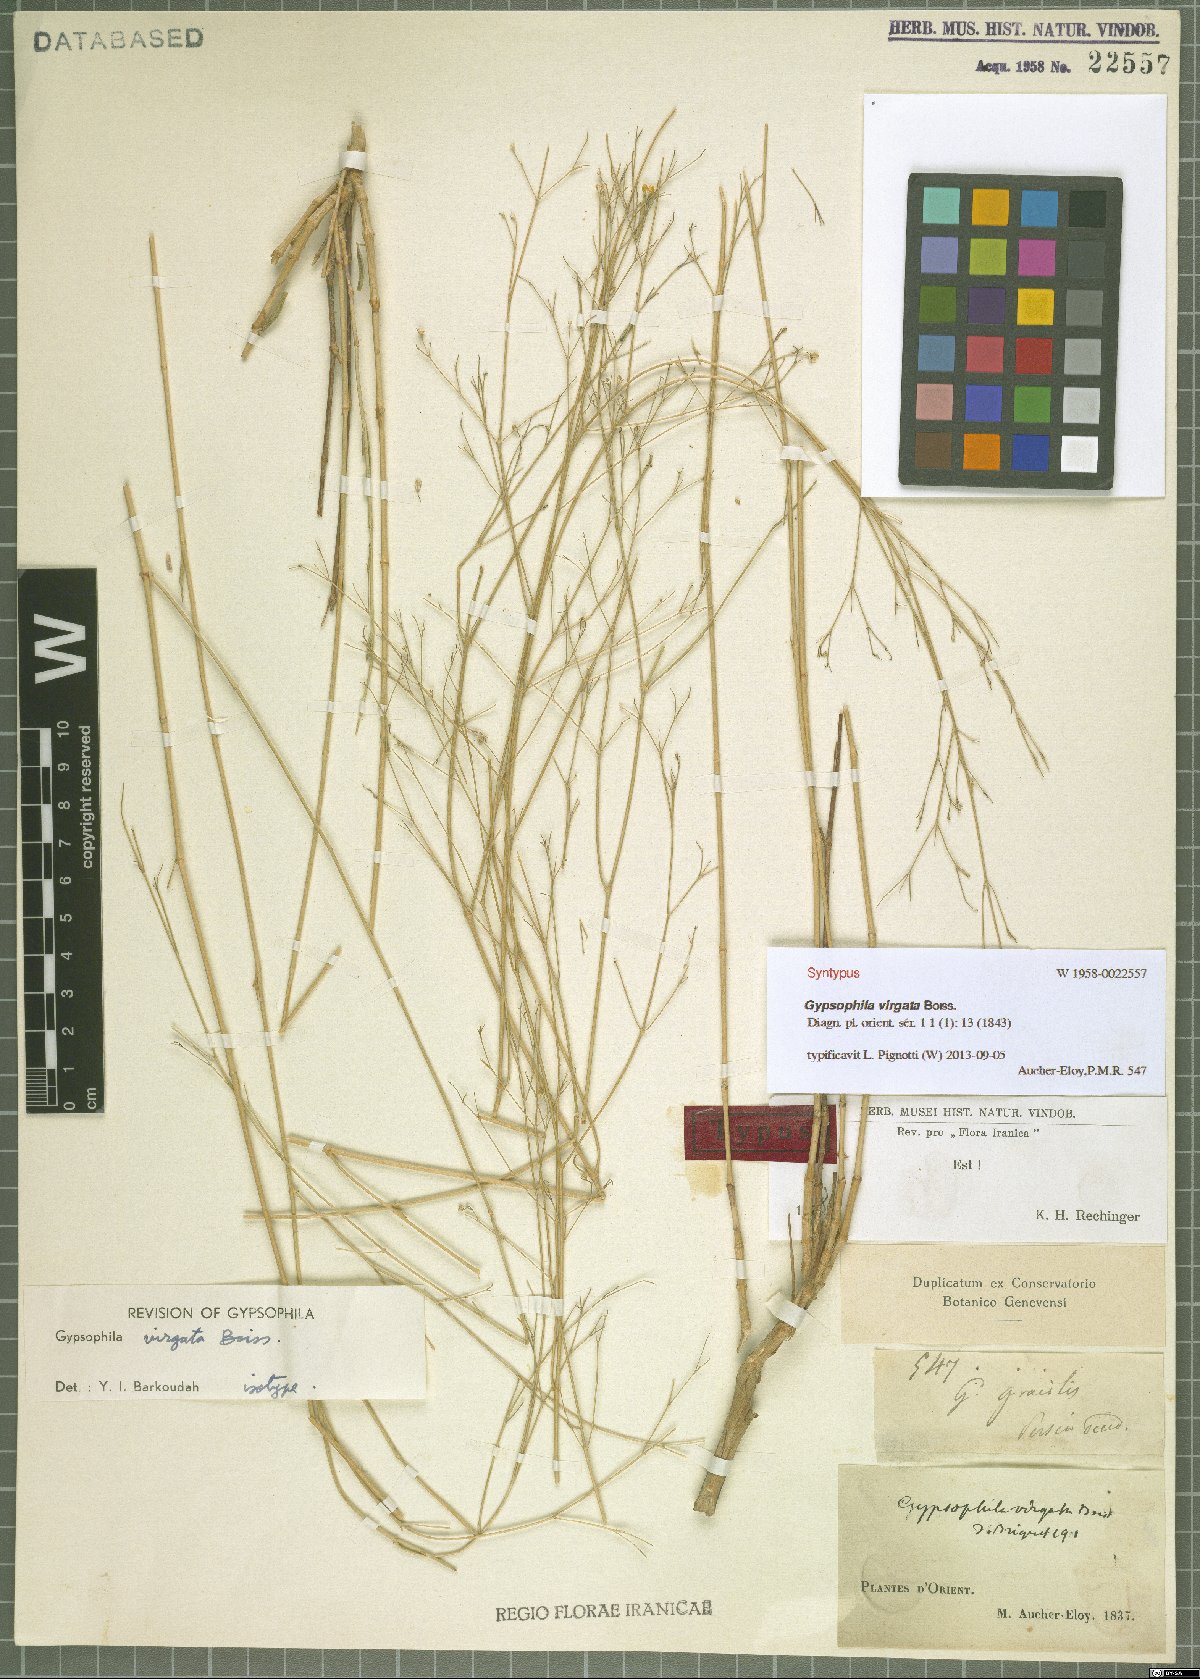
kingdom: Plantae
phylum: Tracheophyta
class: Magnoliopsida
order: Caryophyllales
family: Caryophyllaceae
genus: Gypsophila
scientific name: Gypsophila virgata
